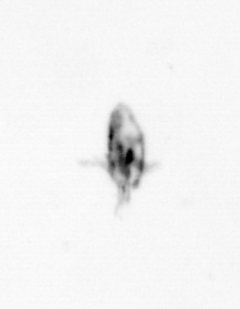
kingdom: Animalia
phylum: Arthropoda
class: Copepoda
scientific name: Copepoda
